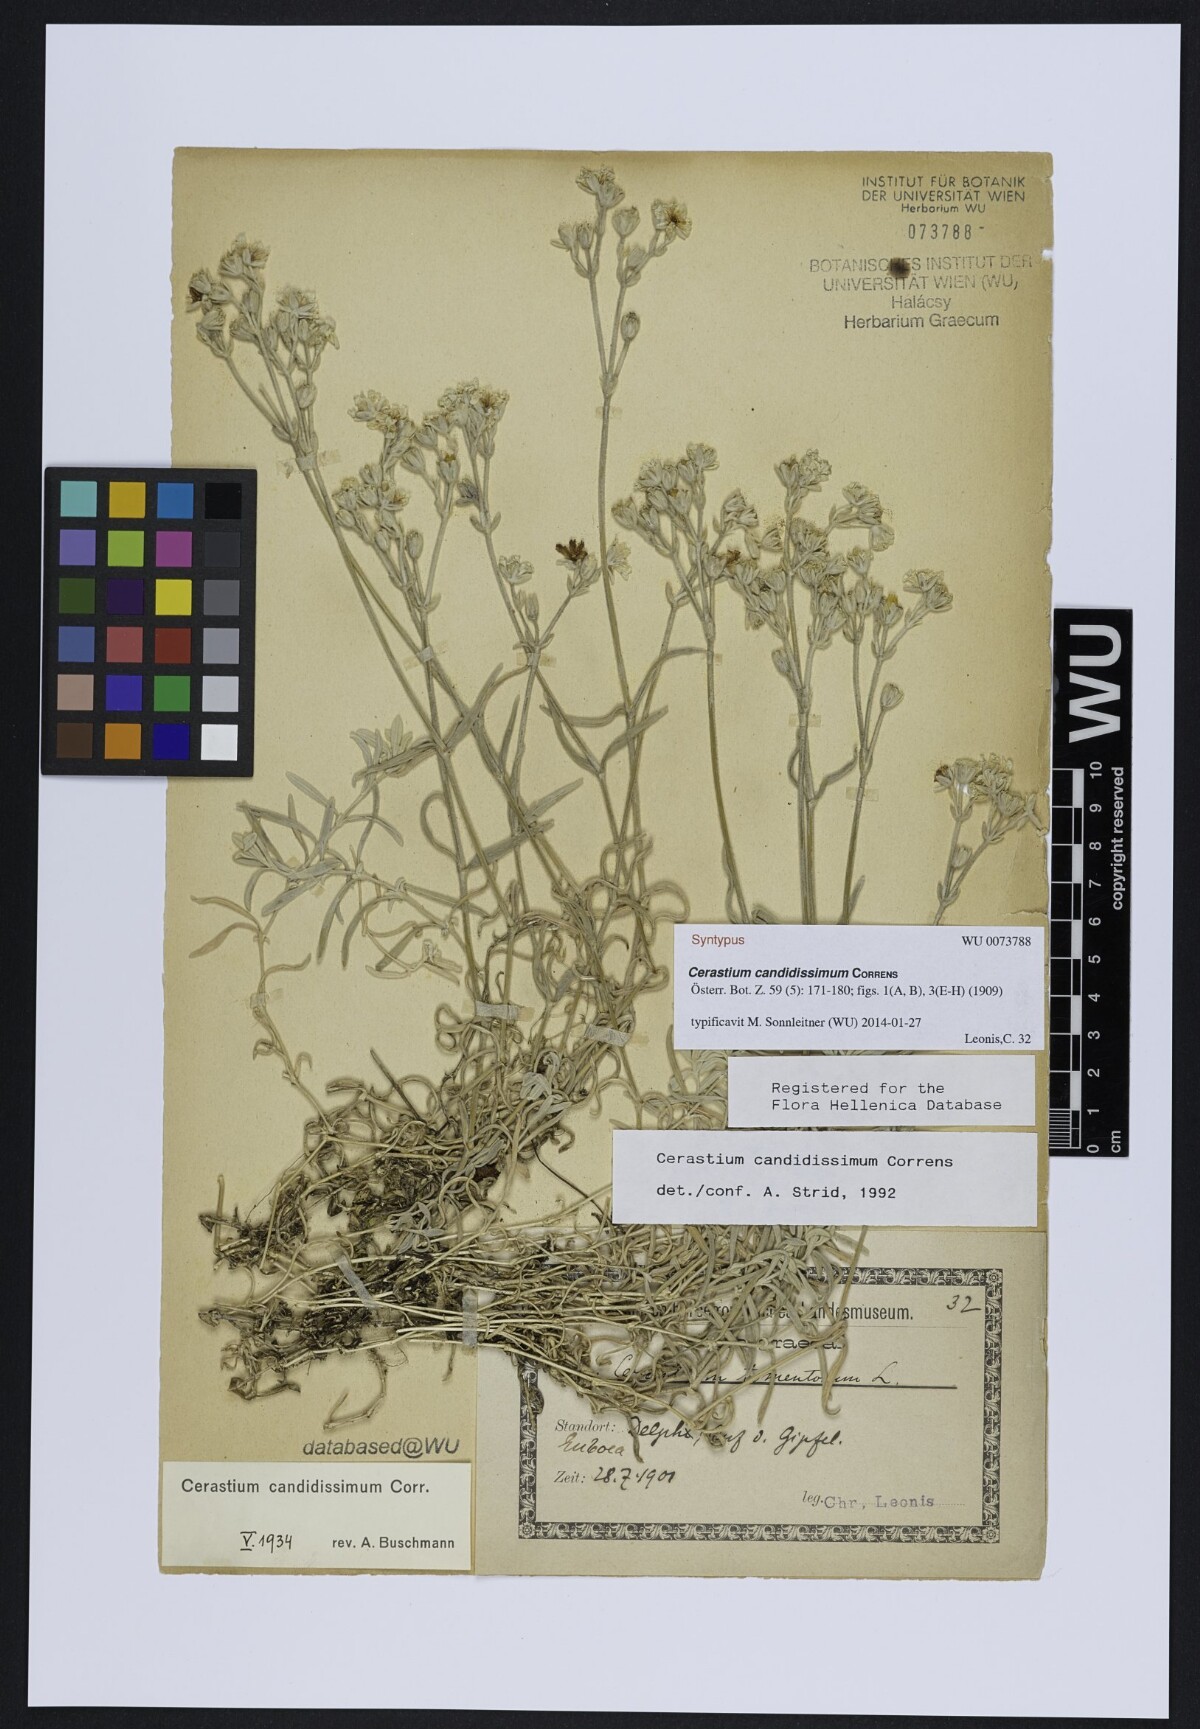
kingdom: Plantae
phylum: Tracheophyta
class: Magnoliopsida
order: Caryophyllales
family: Caryophyllaceae
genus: Cerastium
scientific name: Cerastium candidissimum
